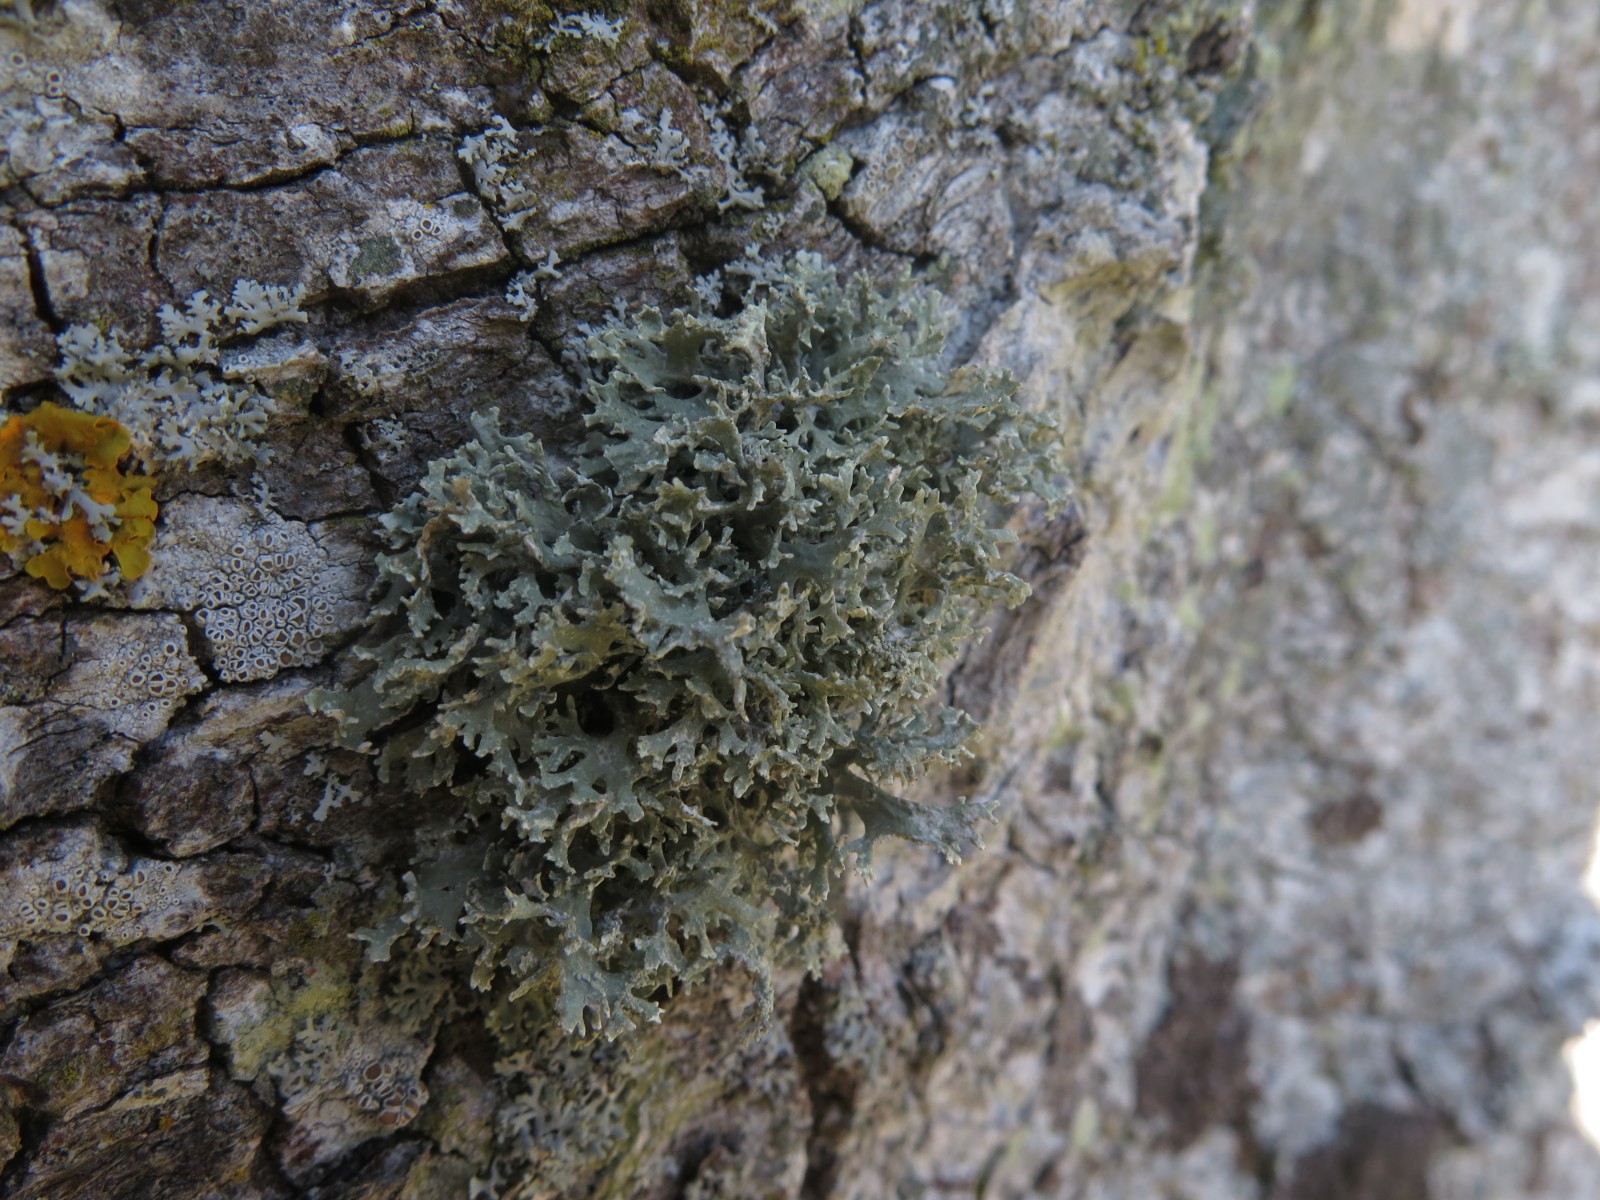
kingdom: Fungi
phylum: Ascomycota
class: Lecanoromycetes
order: Lecanorales
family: Lecanoraceae
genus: Lecanora
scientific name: Lecanora chlarotera
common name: brun kantskivelav
